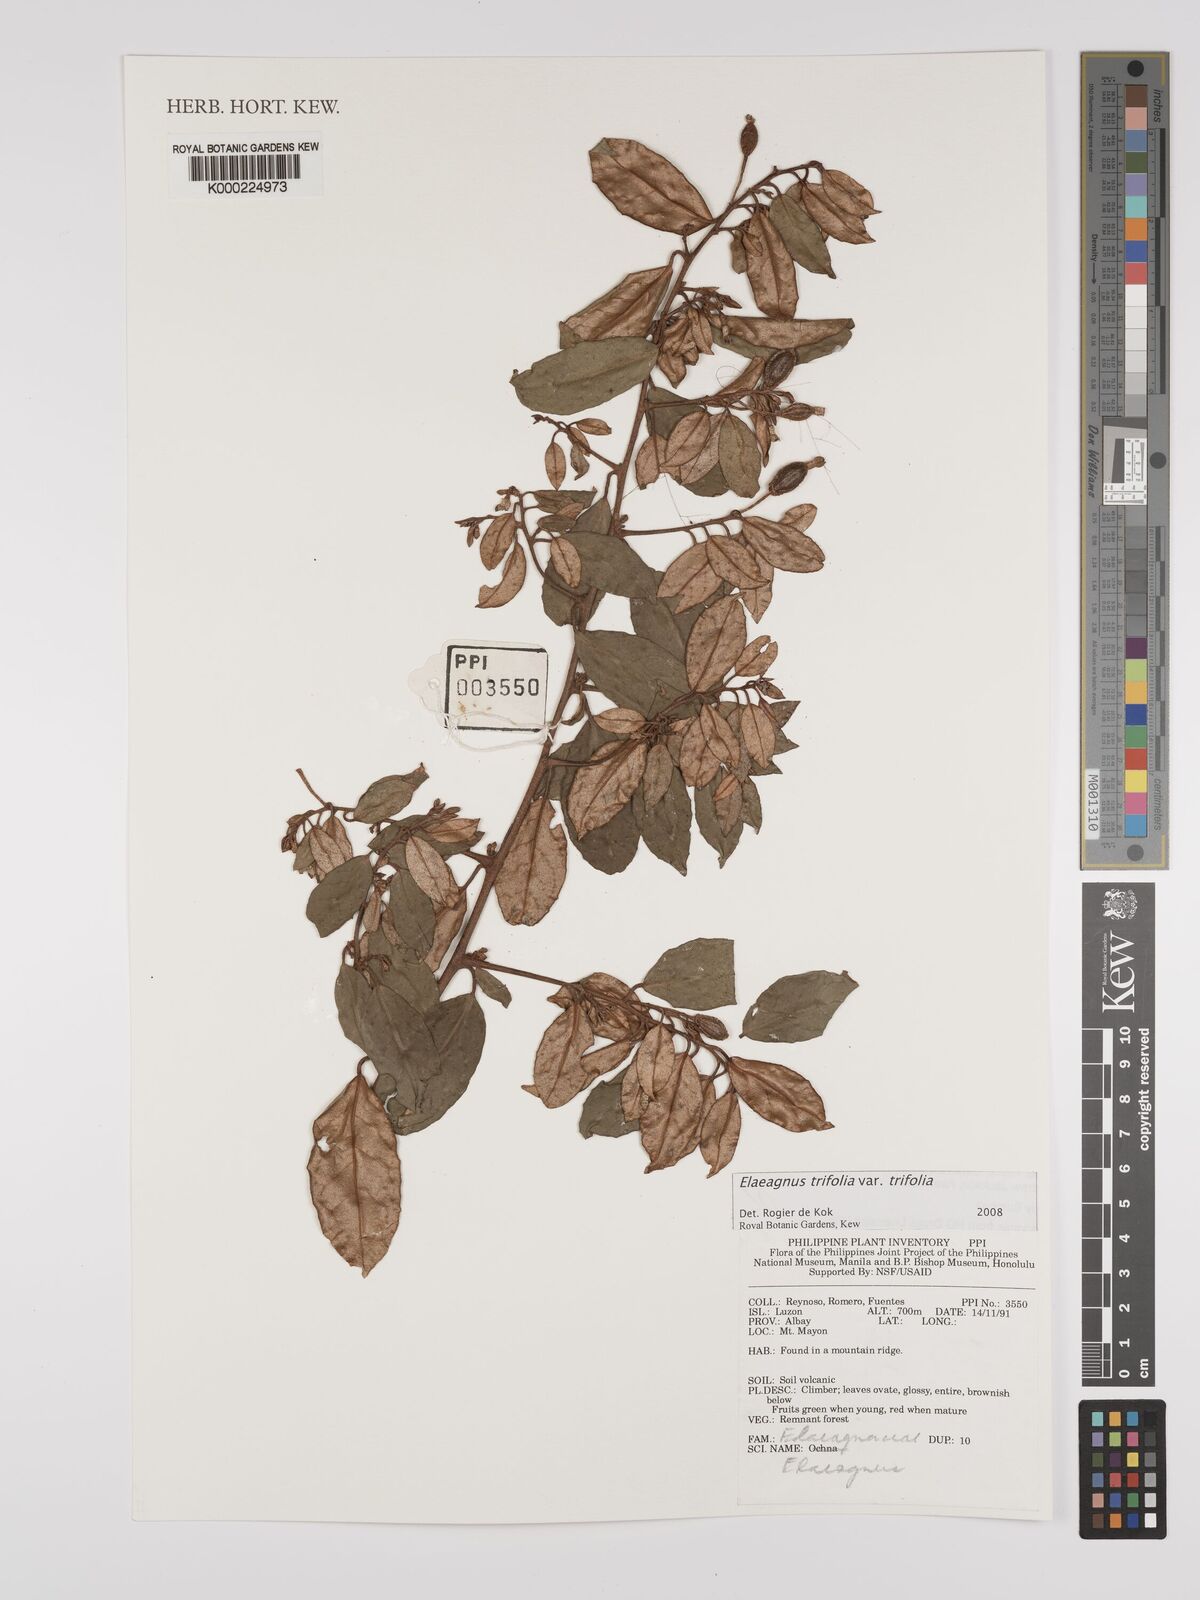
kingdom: Plantae
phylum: Tracheophyta
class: Magnoliopsida
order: Rosales
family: Elaeagnaceae
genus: Elaeagnus
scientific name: Elaeagnus
